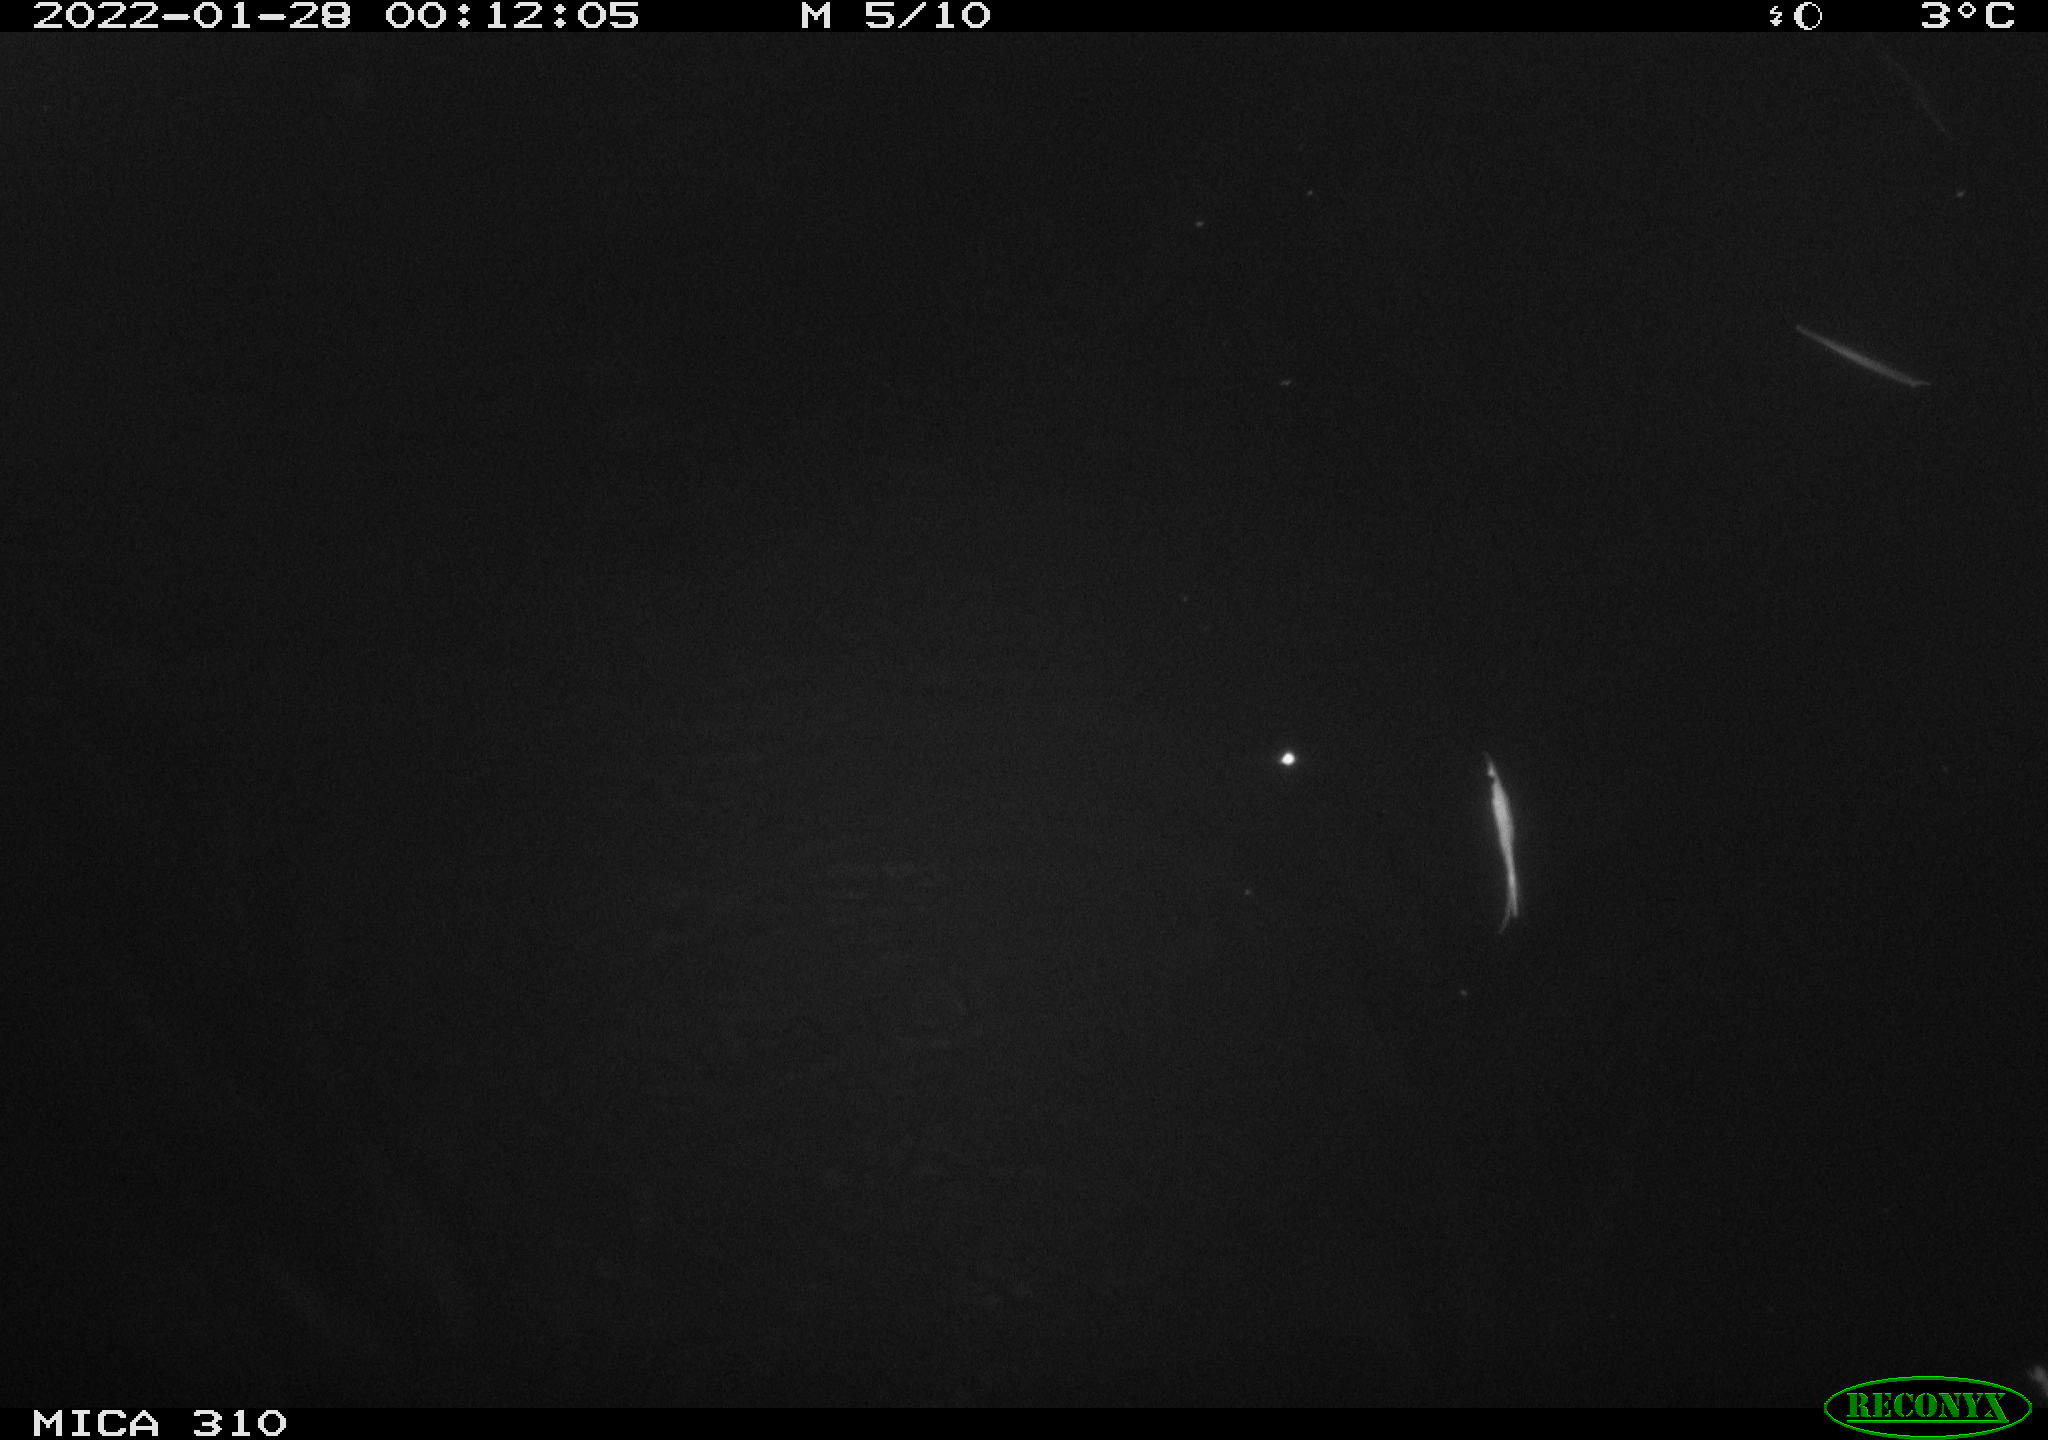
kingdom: Animalia
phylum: Chordata
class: Mammalia
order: Rodentia
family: Cricetidae
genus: Ondatra
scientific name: Ondatra zibethicus
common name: Muskrat
